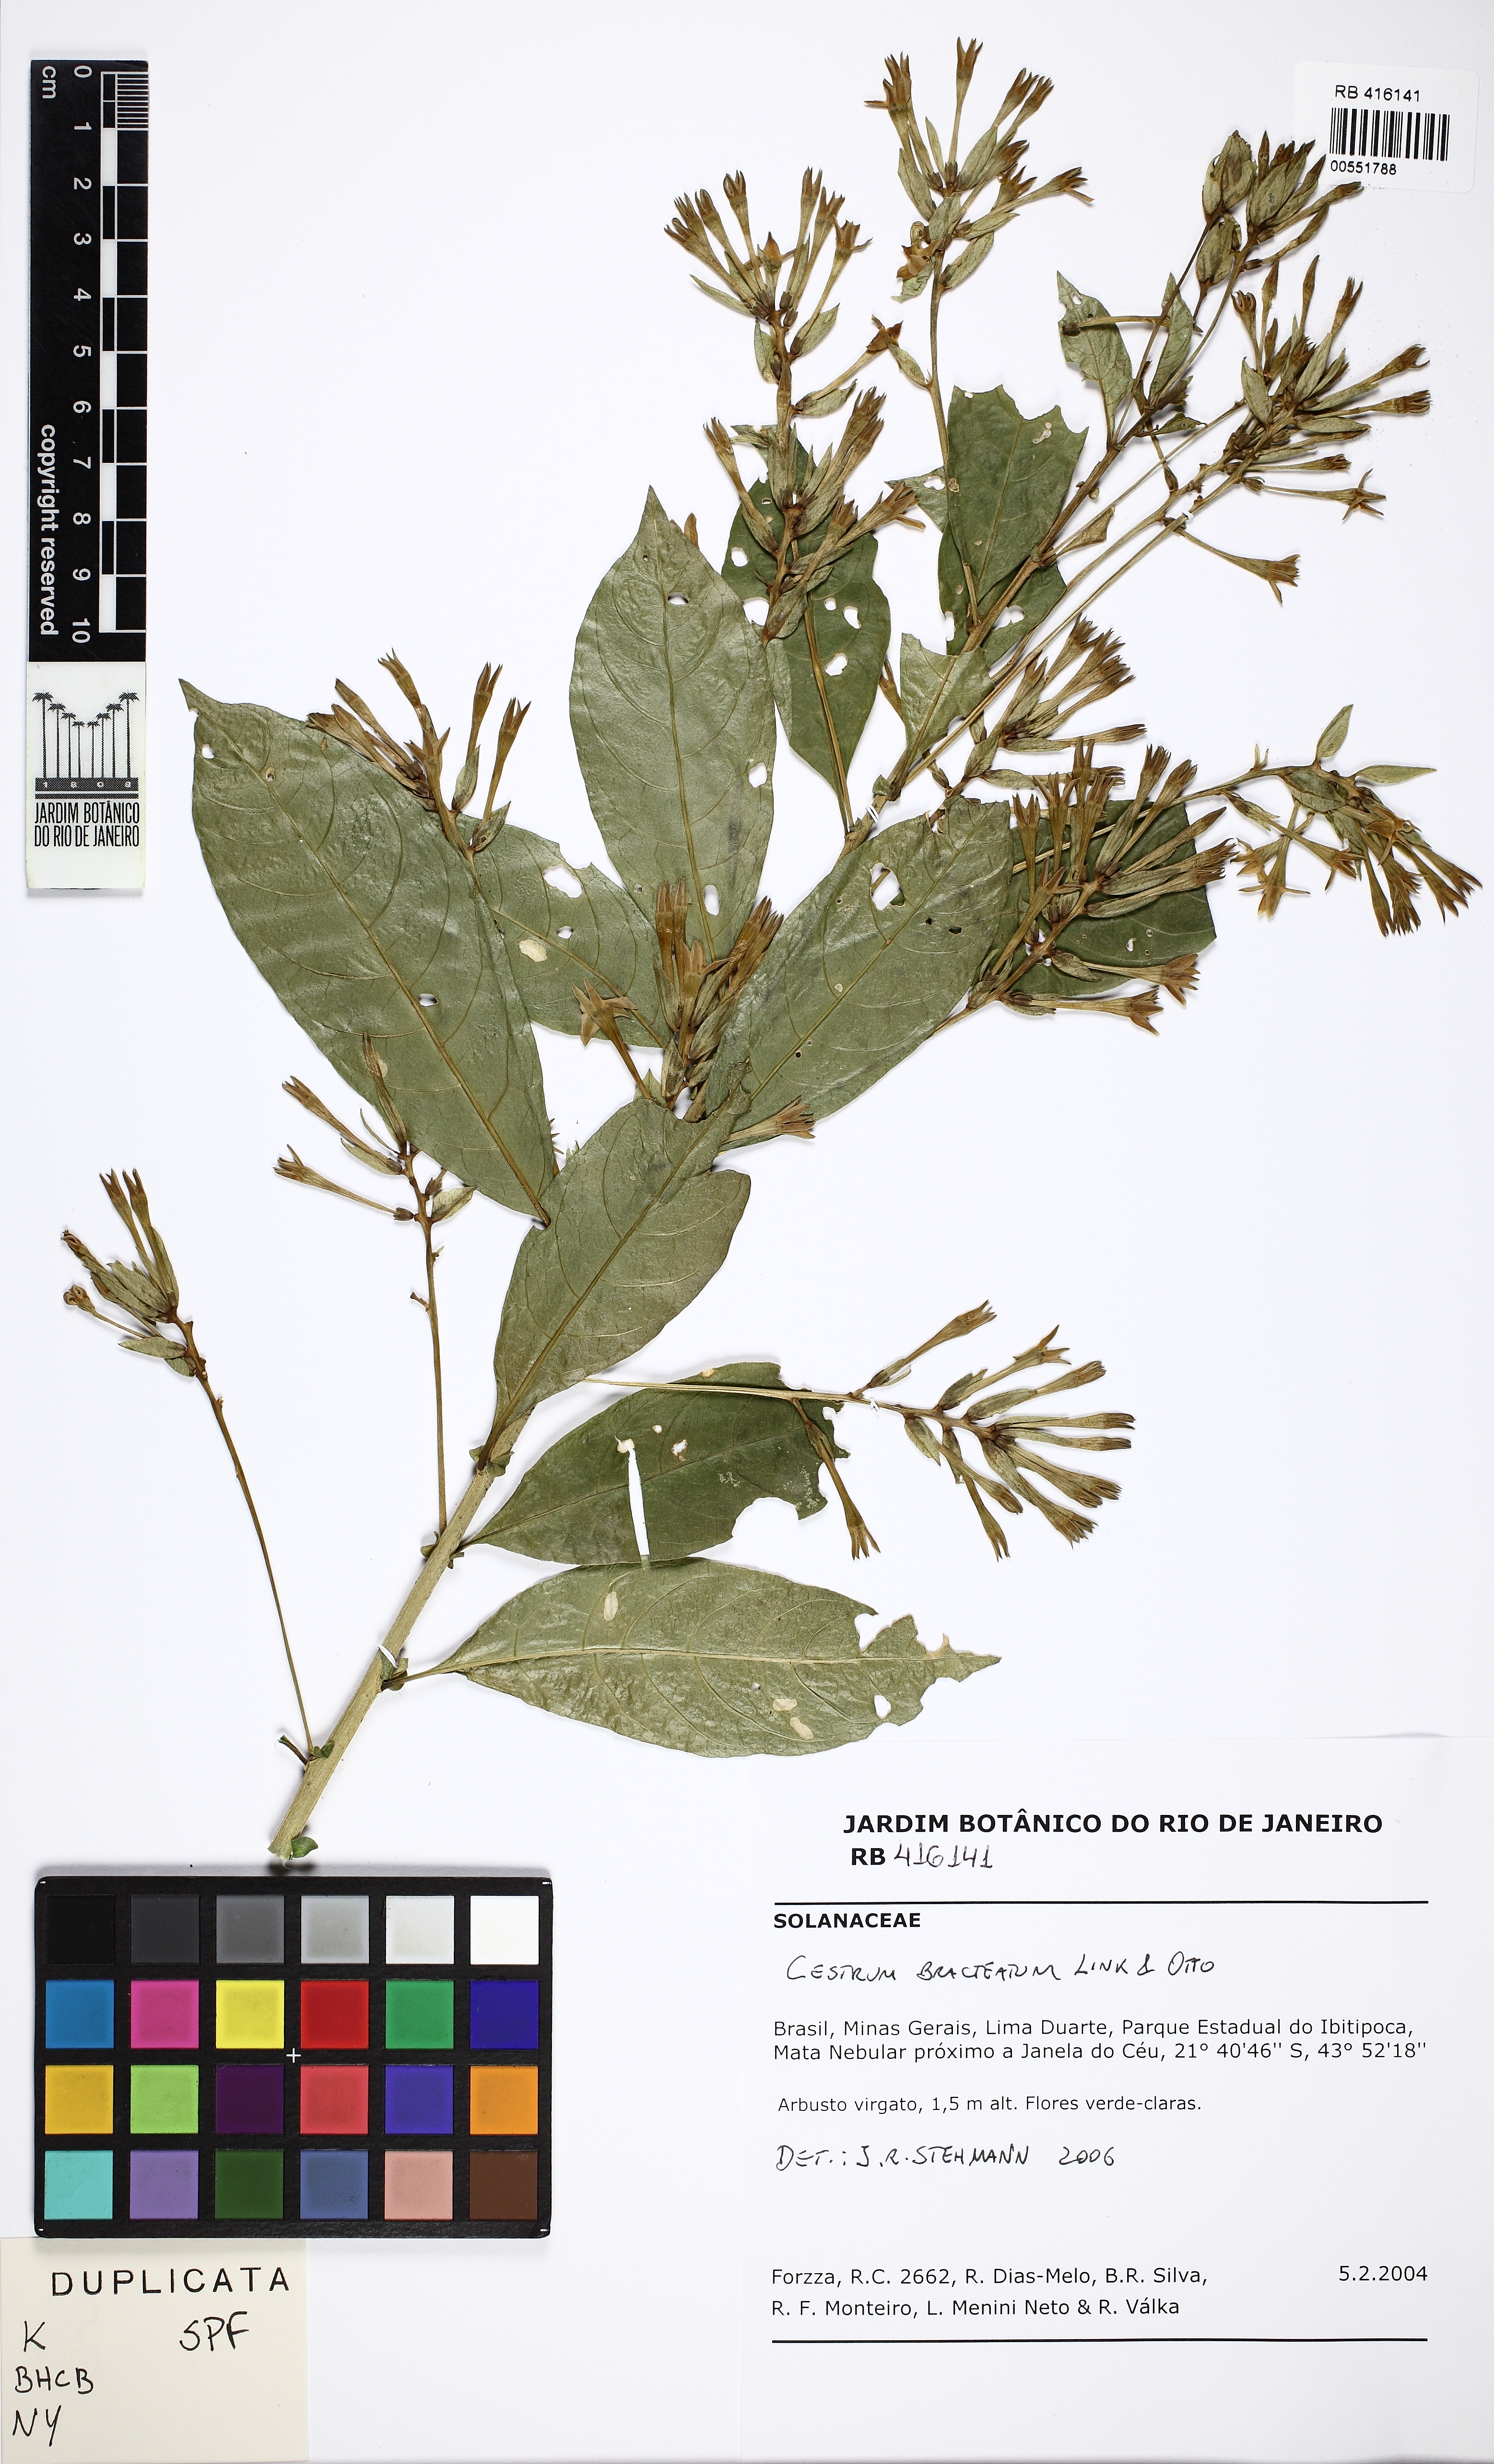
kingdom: Plantae
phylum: Tracheophyta
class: Magnoliopsida
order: Solanales
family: Solanaceae
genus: Cestrum
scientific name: Cestrum bracteatum
